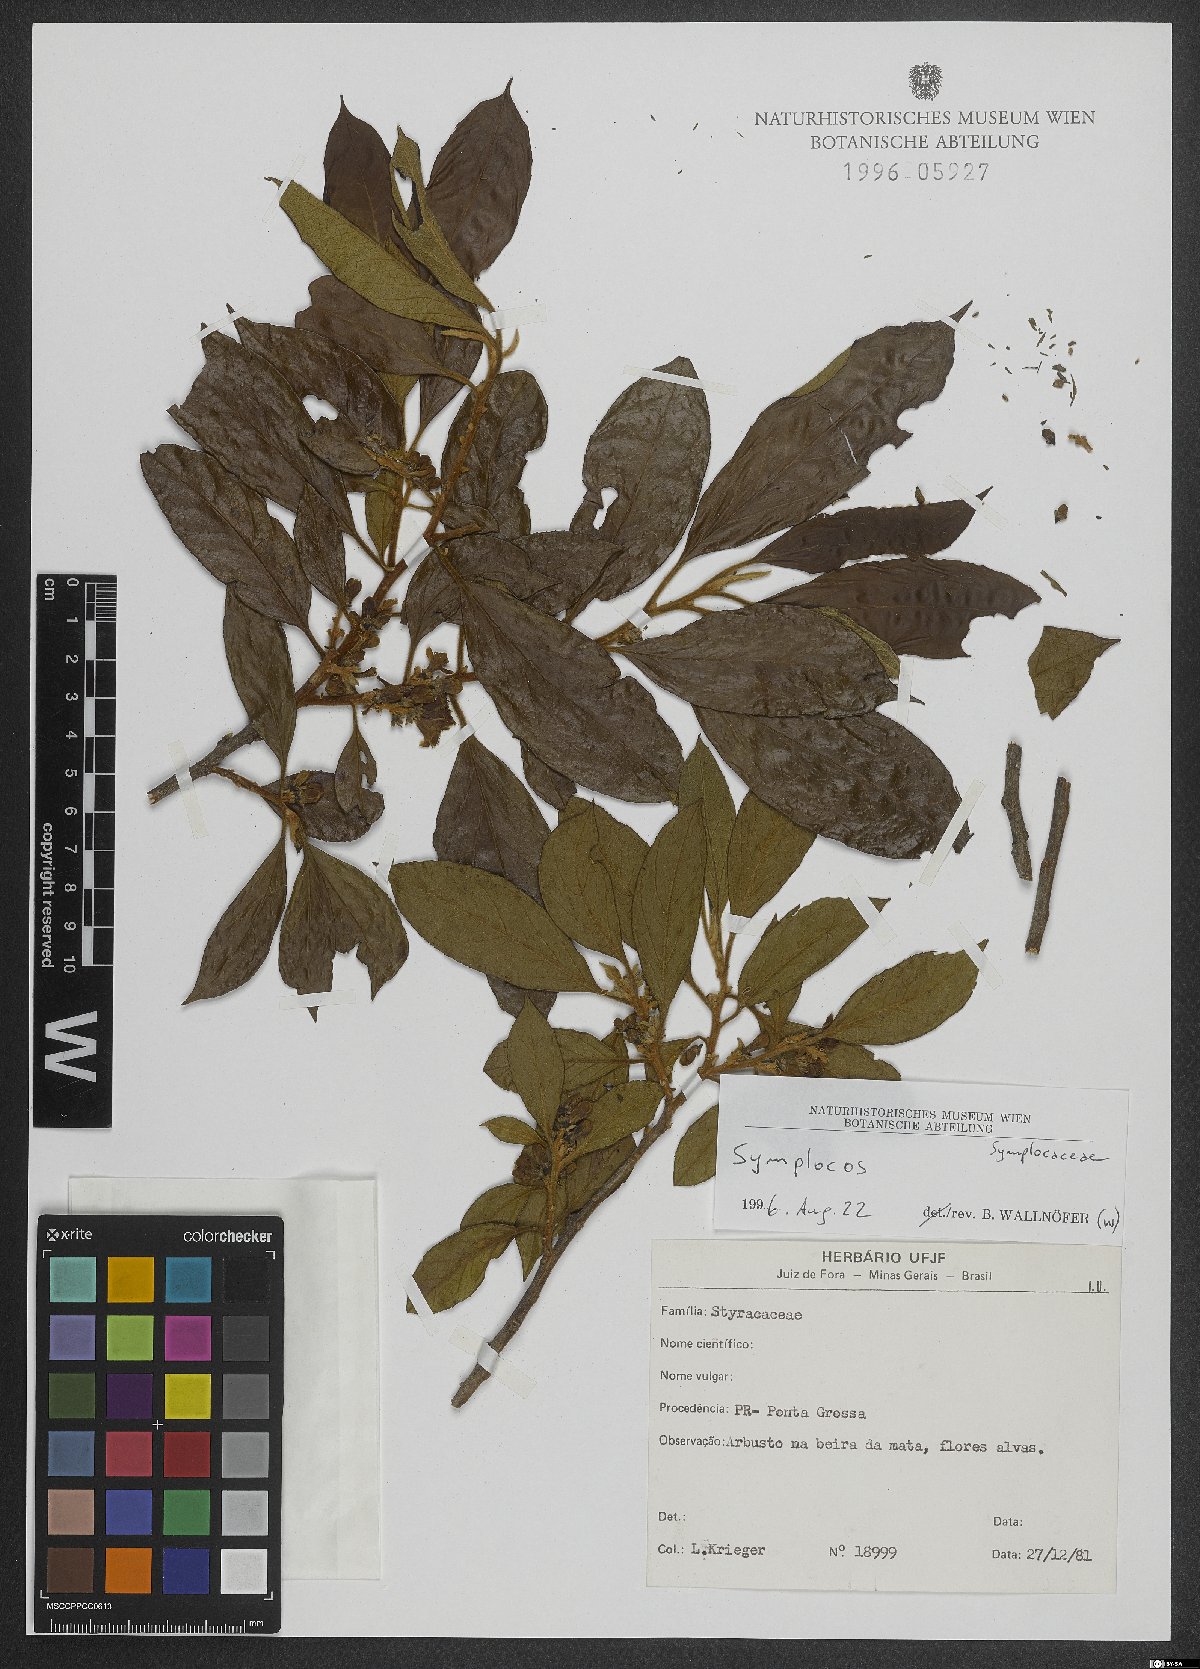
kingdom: Plantae
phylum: Tracheophyta
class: Magnoliopsida
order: Ericales
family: Symplocaceae
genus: Symplocos
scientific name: Symplocos
